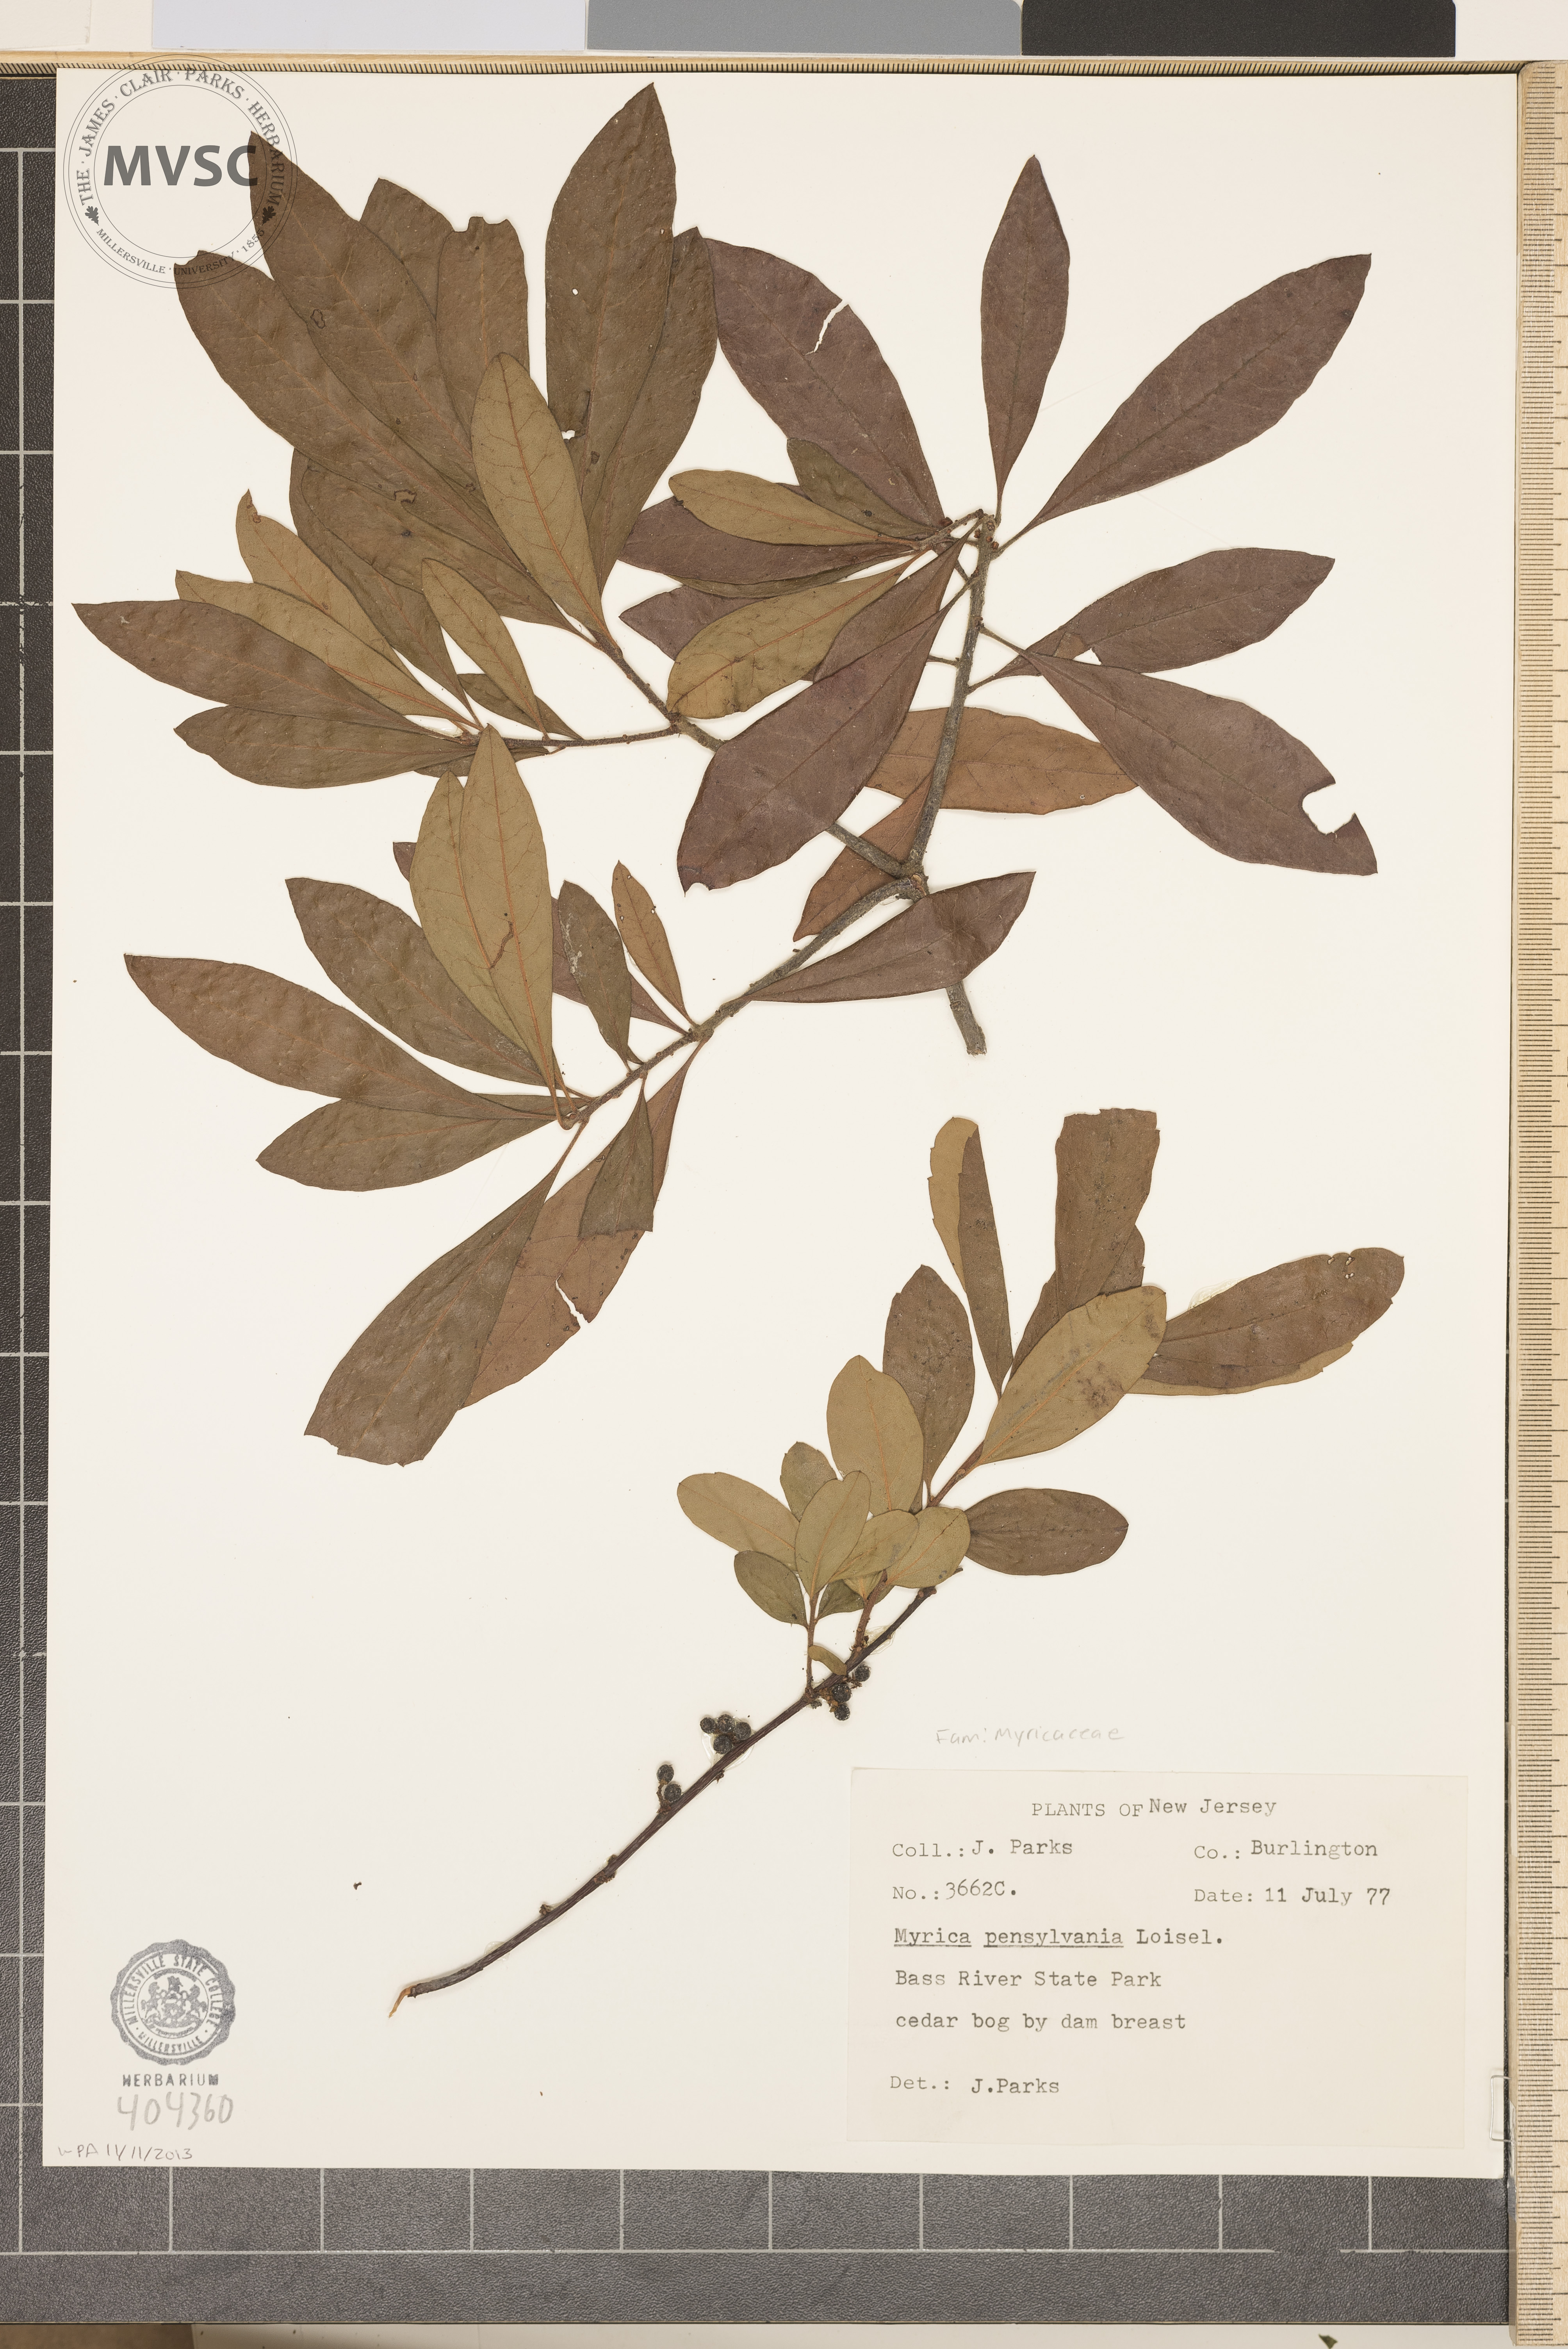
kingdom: Plantae
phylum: Tracheophyta
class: Magnoliopsida
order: Fagales
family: Myricaceae
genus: Morella
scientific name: Morella
